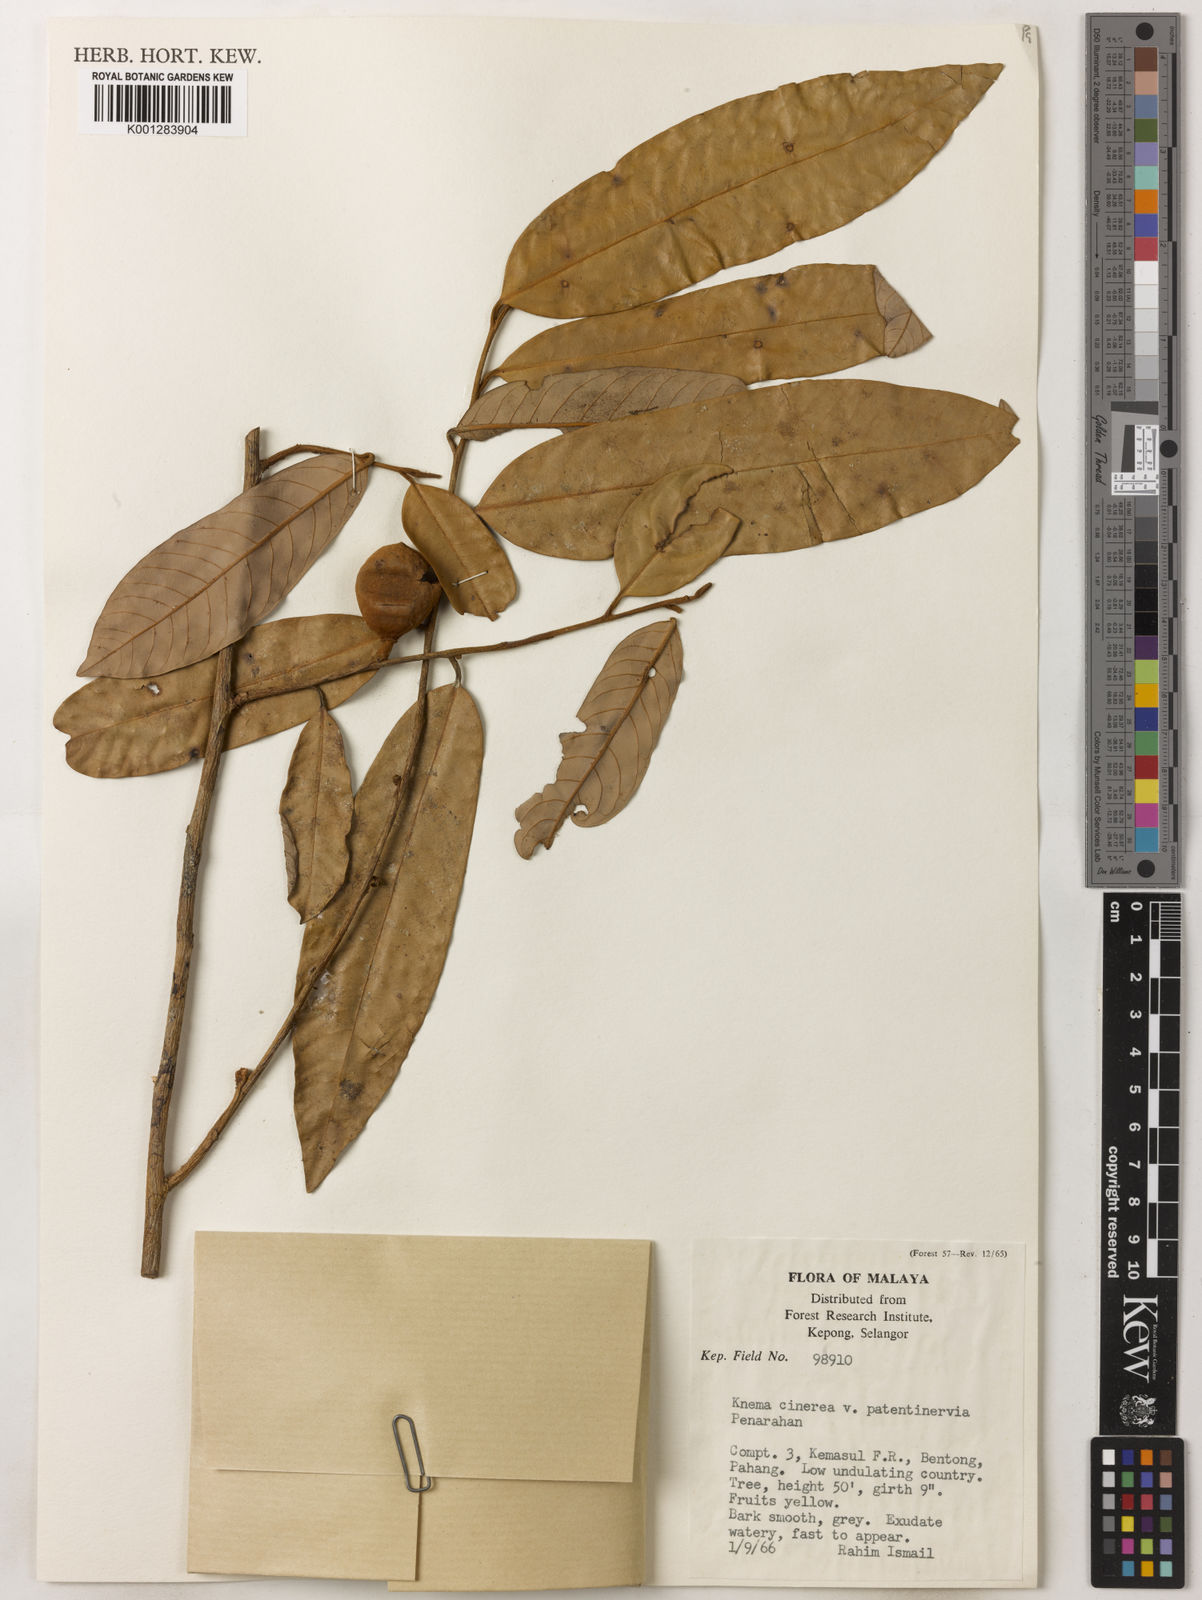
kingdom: Plantae
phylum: Tracheophyta
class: Magnoliopsida
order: Magnoliales
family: Myristicaceae
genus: Knema
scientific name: Knema
